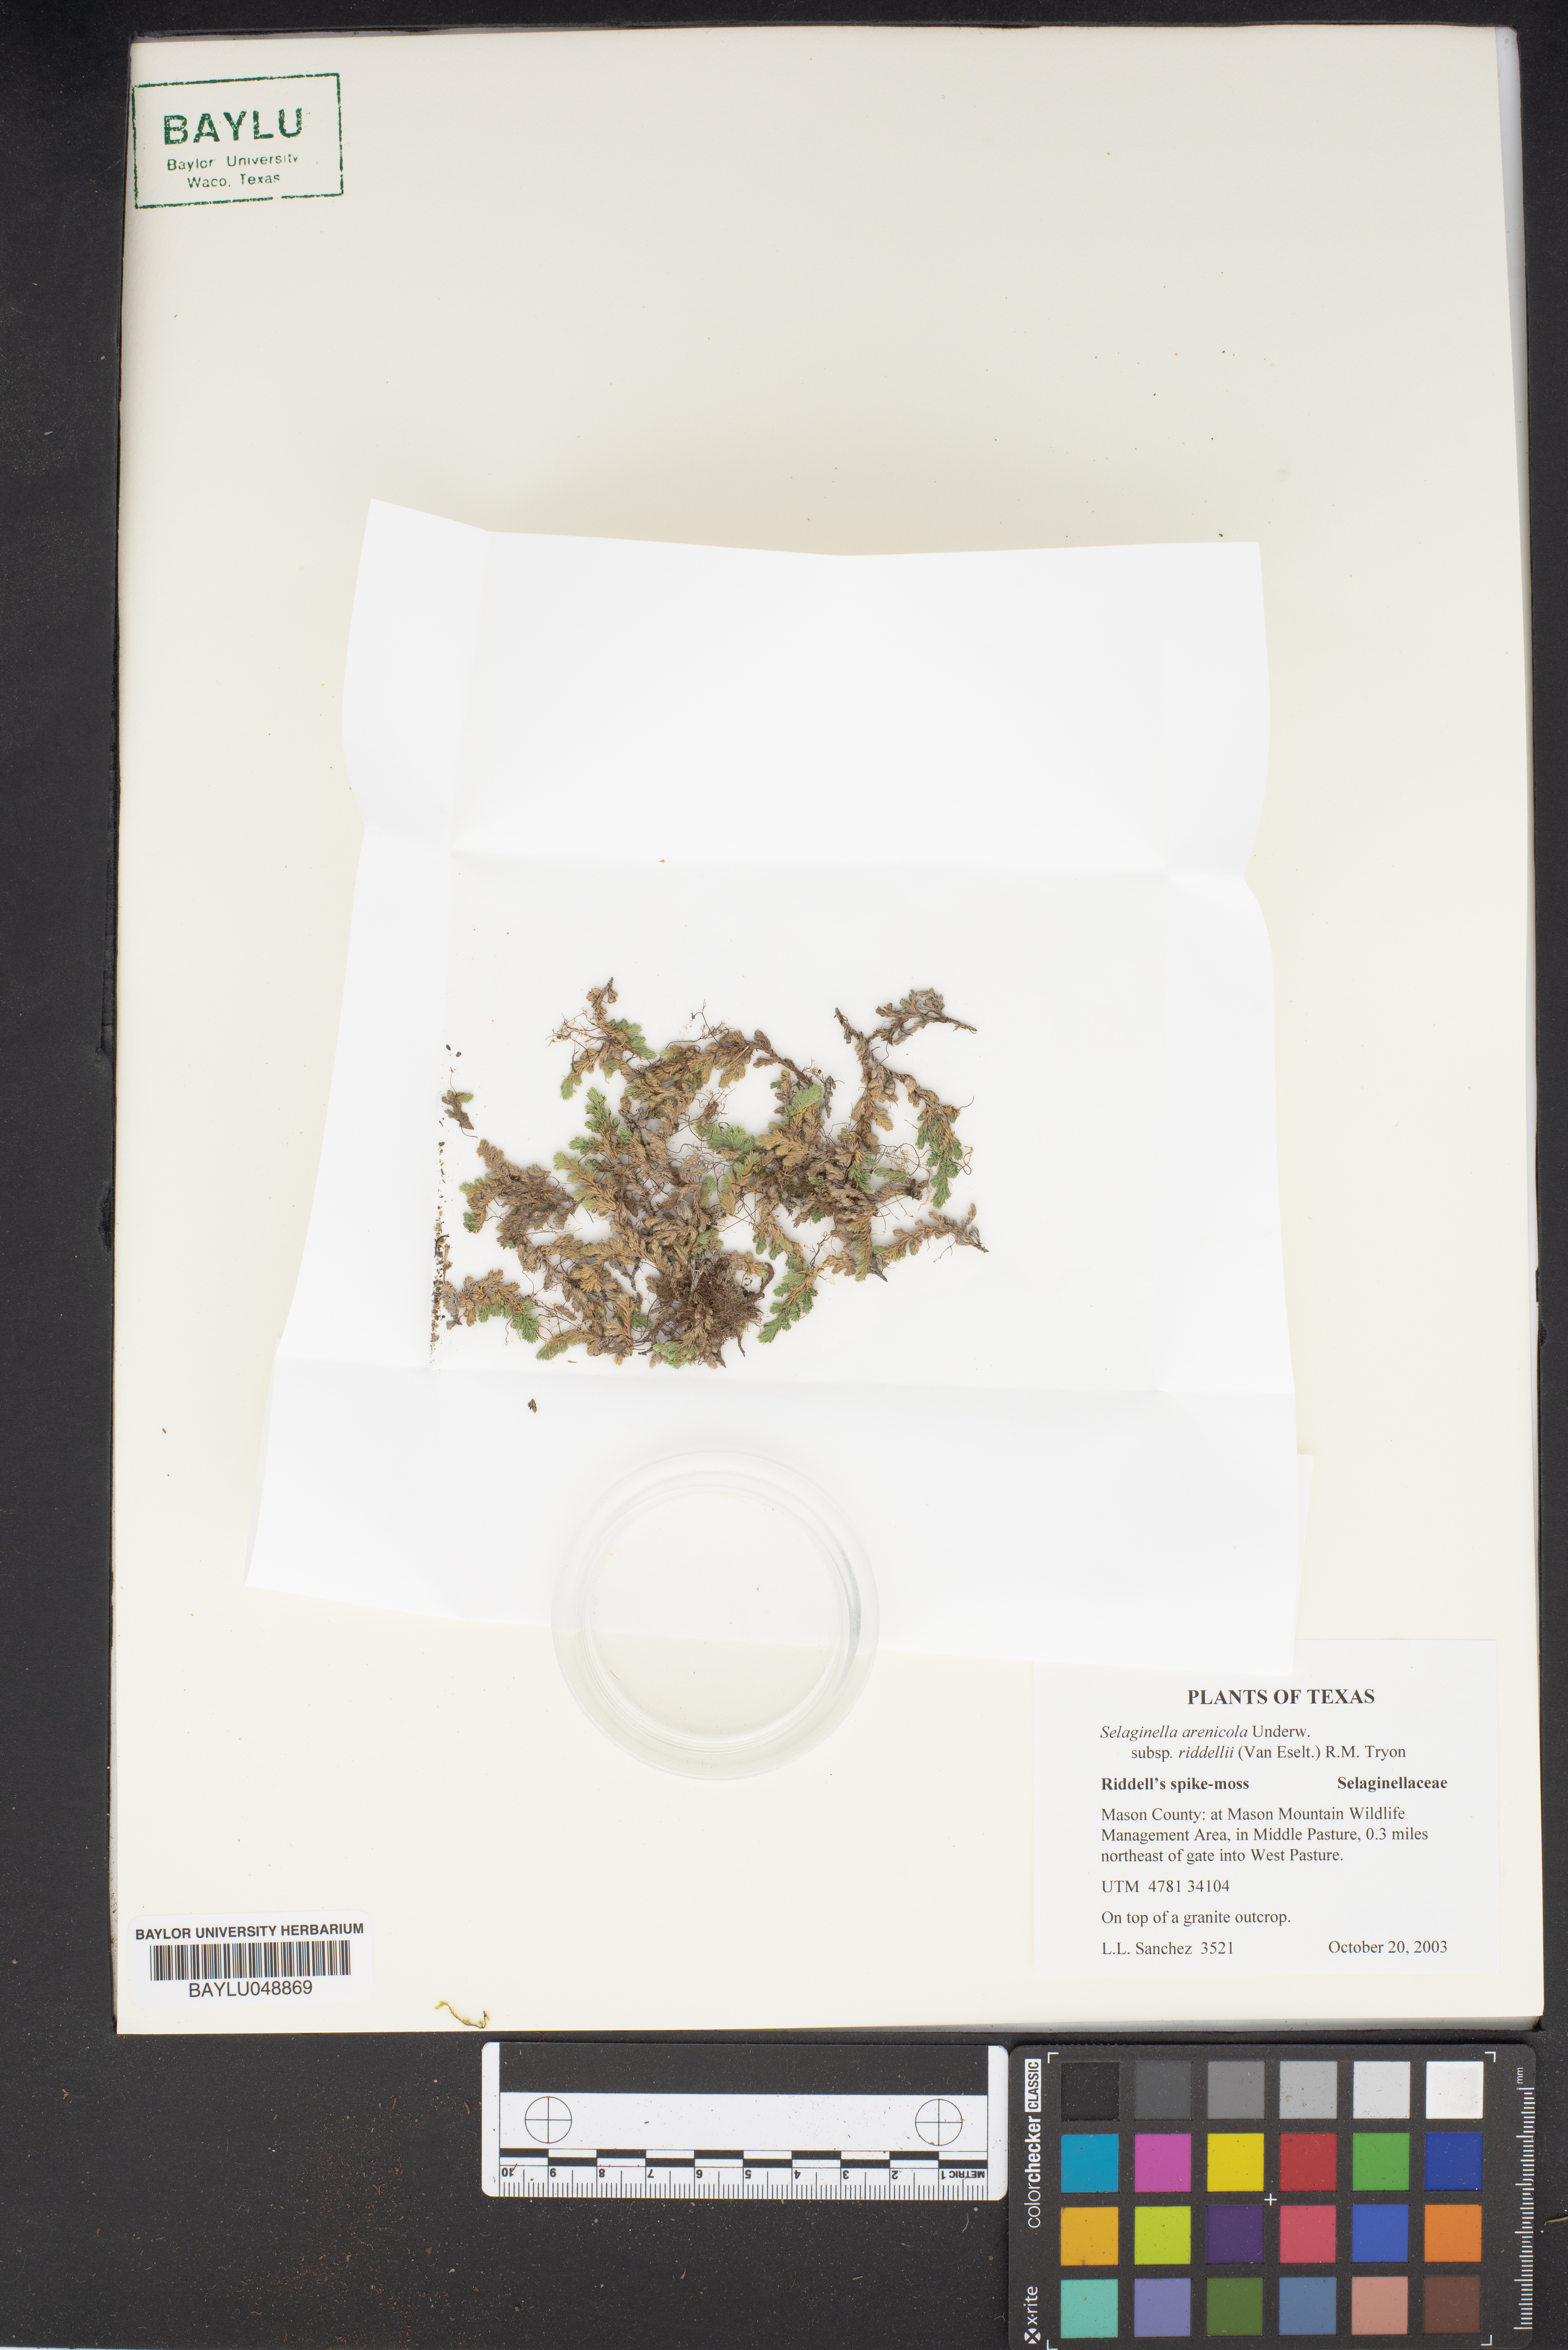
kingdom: Plantae
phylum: Tracheophyta
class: Lycopodiopsida
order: Selaginellales
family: Selaginellaceae
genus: Selaginella
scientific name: Selaginella arenicola
